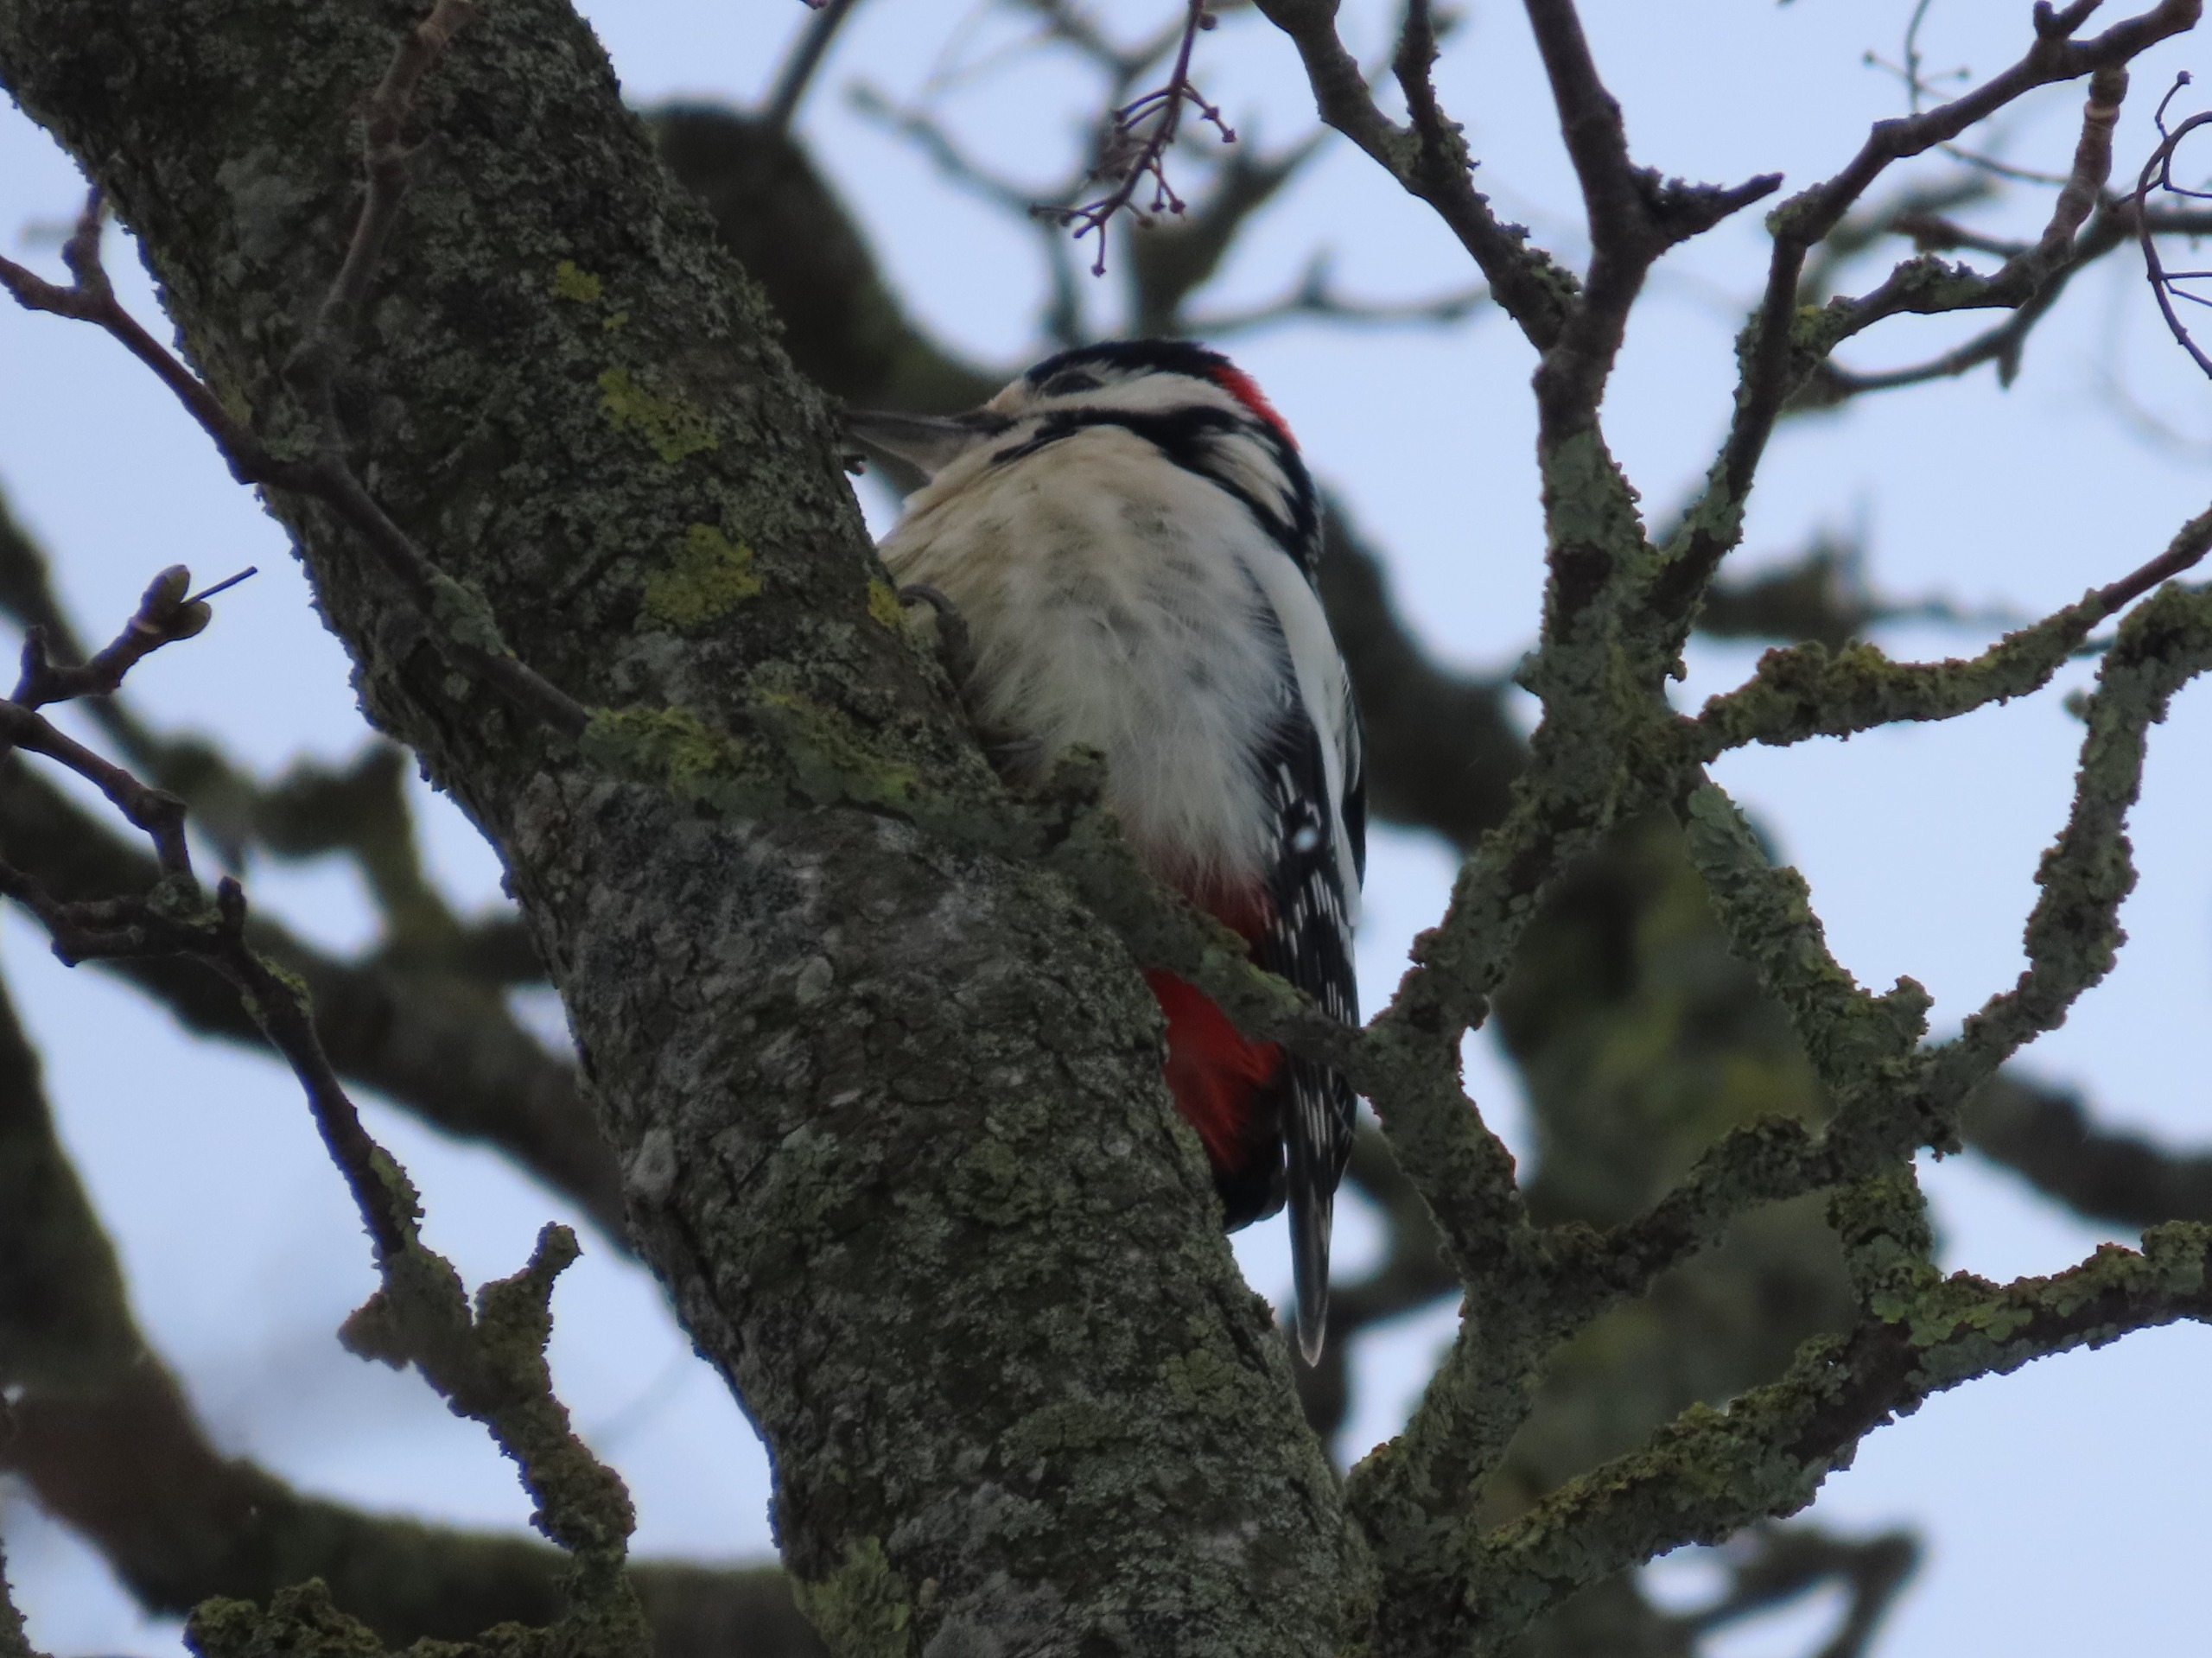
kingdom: Animalia
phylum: Chordata
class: Aves
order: Piciformes
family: Picidae
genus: Dendrocopos
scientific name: Dendrocopos major
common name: Stor flagspætte
